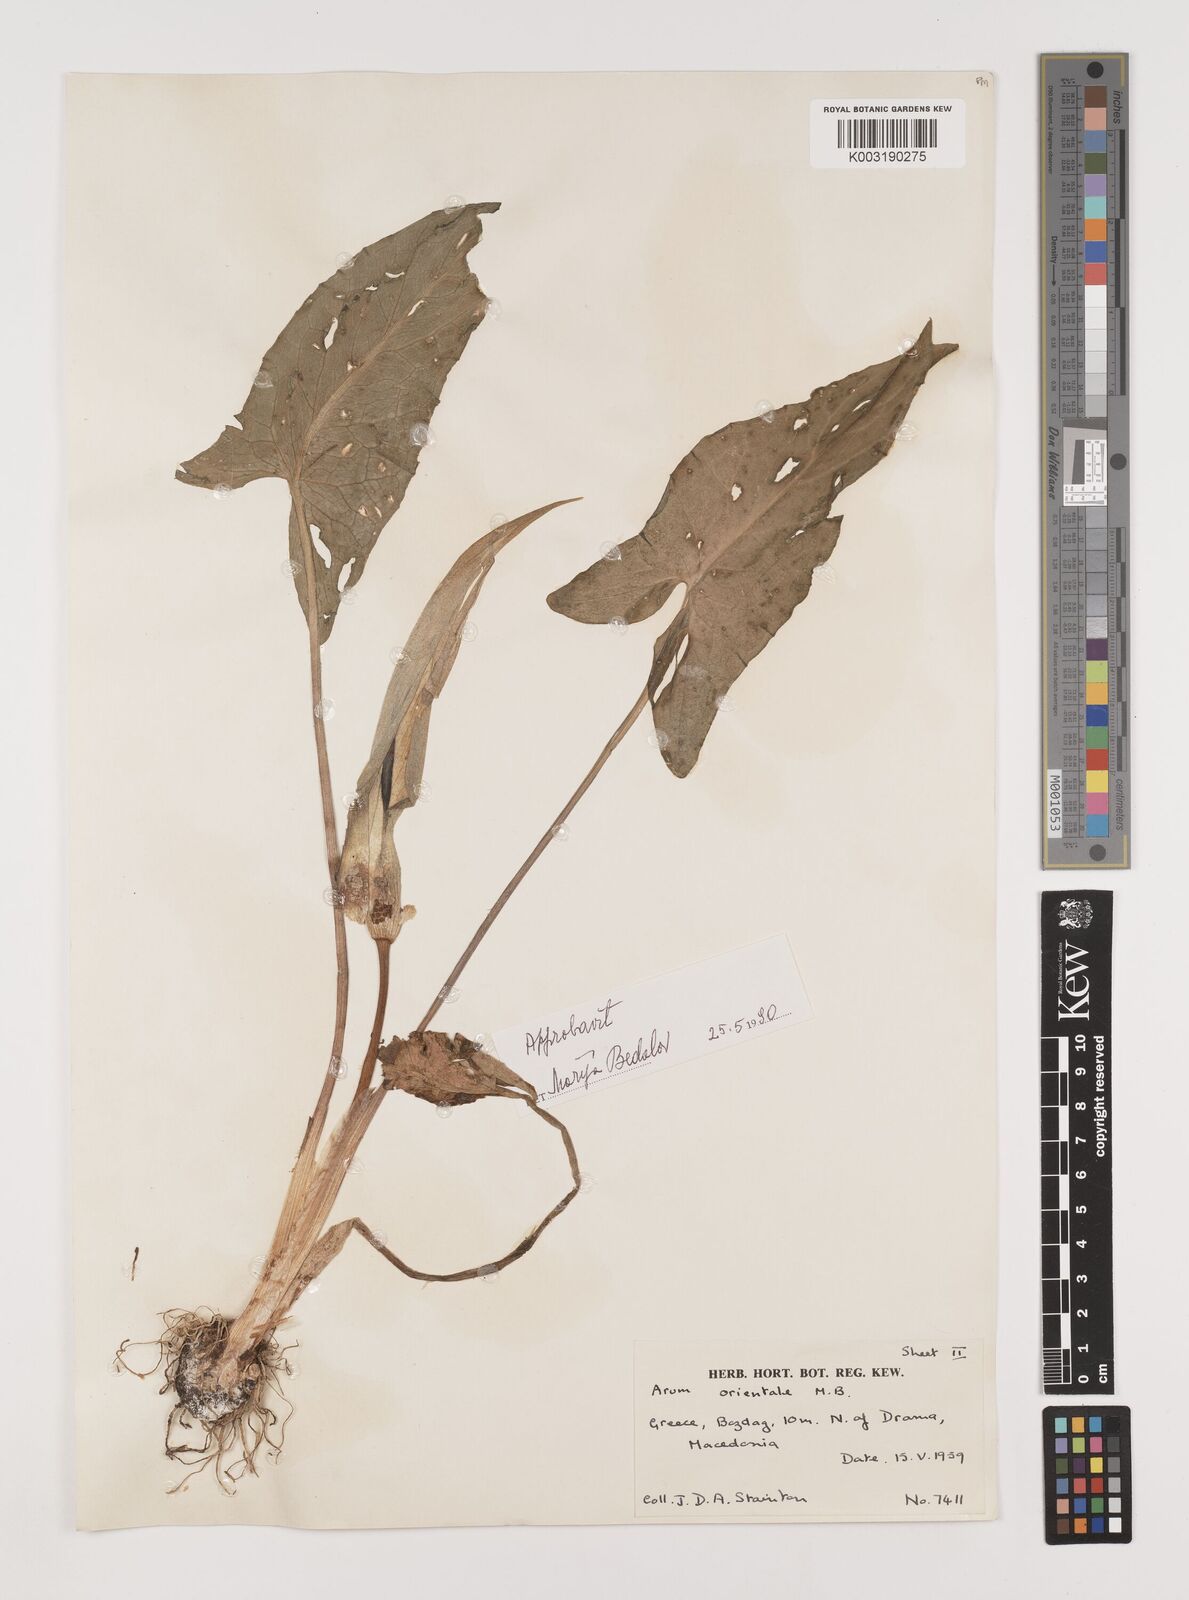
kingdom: Plantae
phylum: Tracheophyta
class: Liliopsida
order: Alismatales
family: Araceae
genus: Arum
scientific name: Arum orientale
